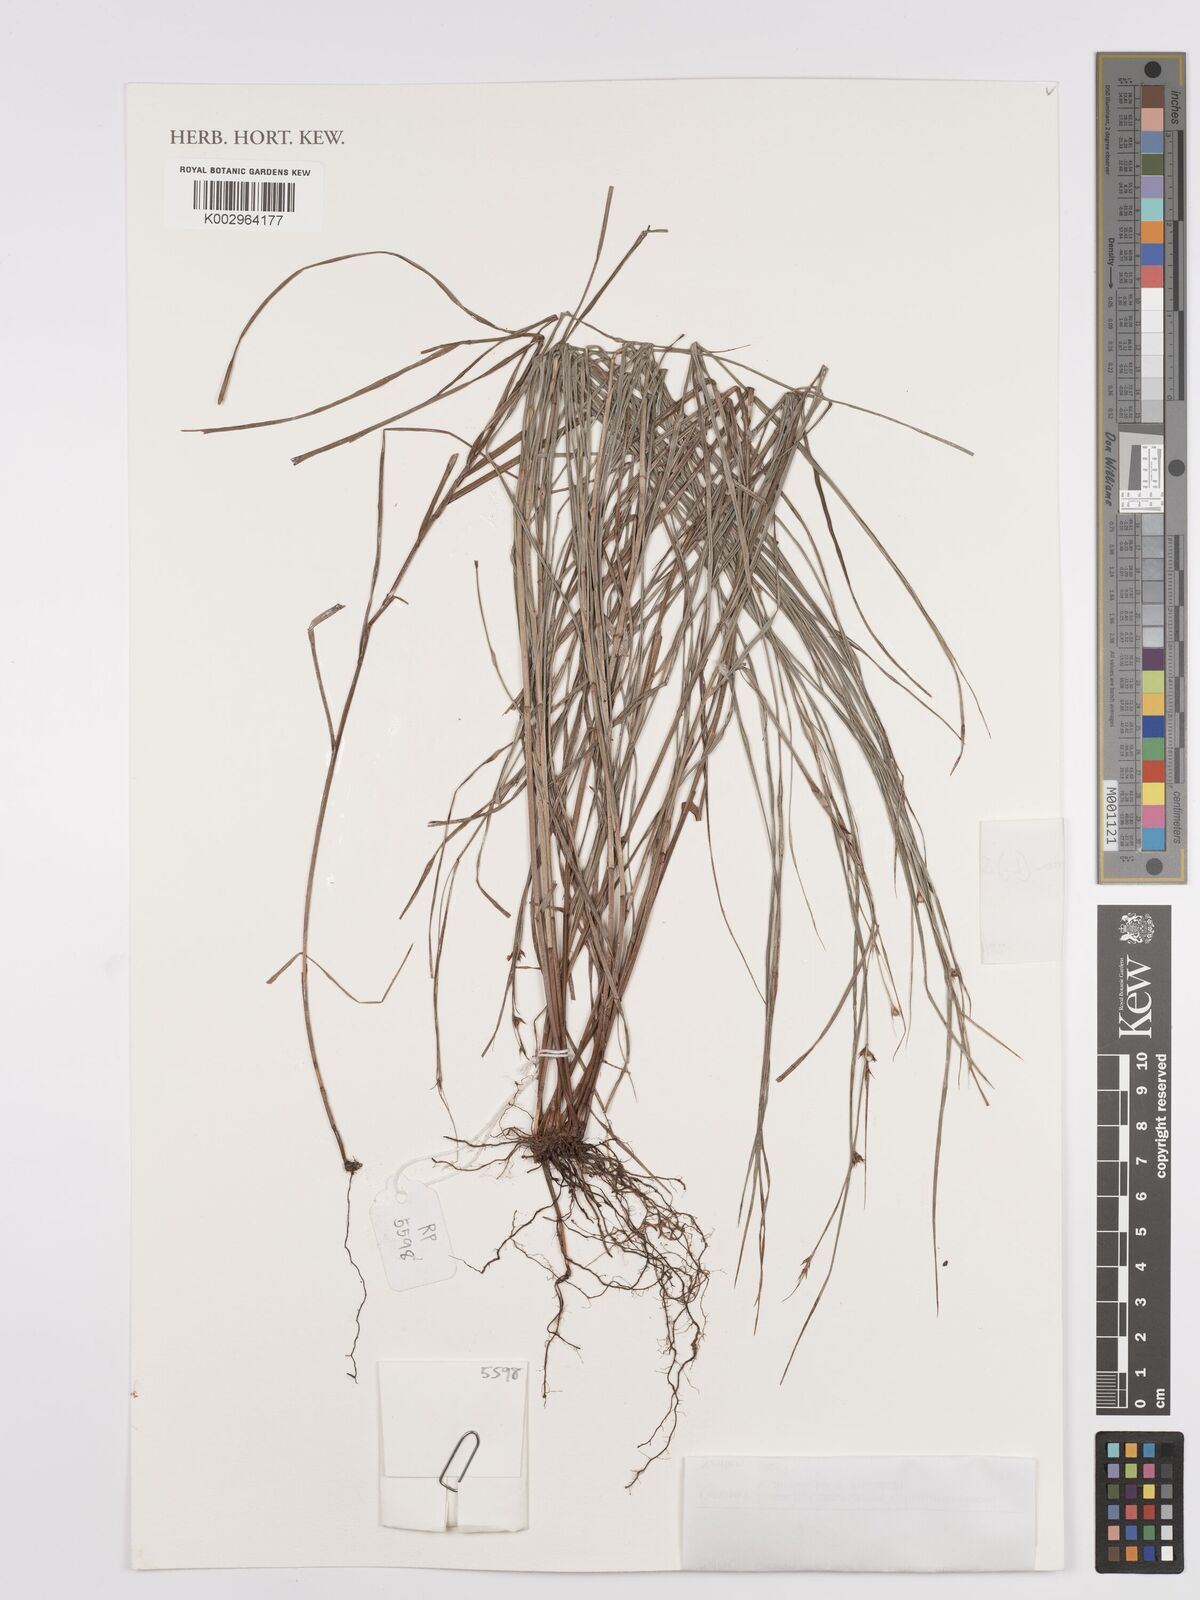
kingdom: Plantae
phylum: Tracheophyta
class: Liliopsida
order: Poales
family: Cyperaceae
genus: Scleria
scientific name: Scleria lithosperma
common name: Florida keys nut-rush
